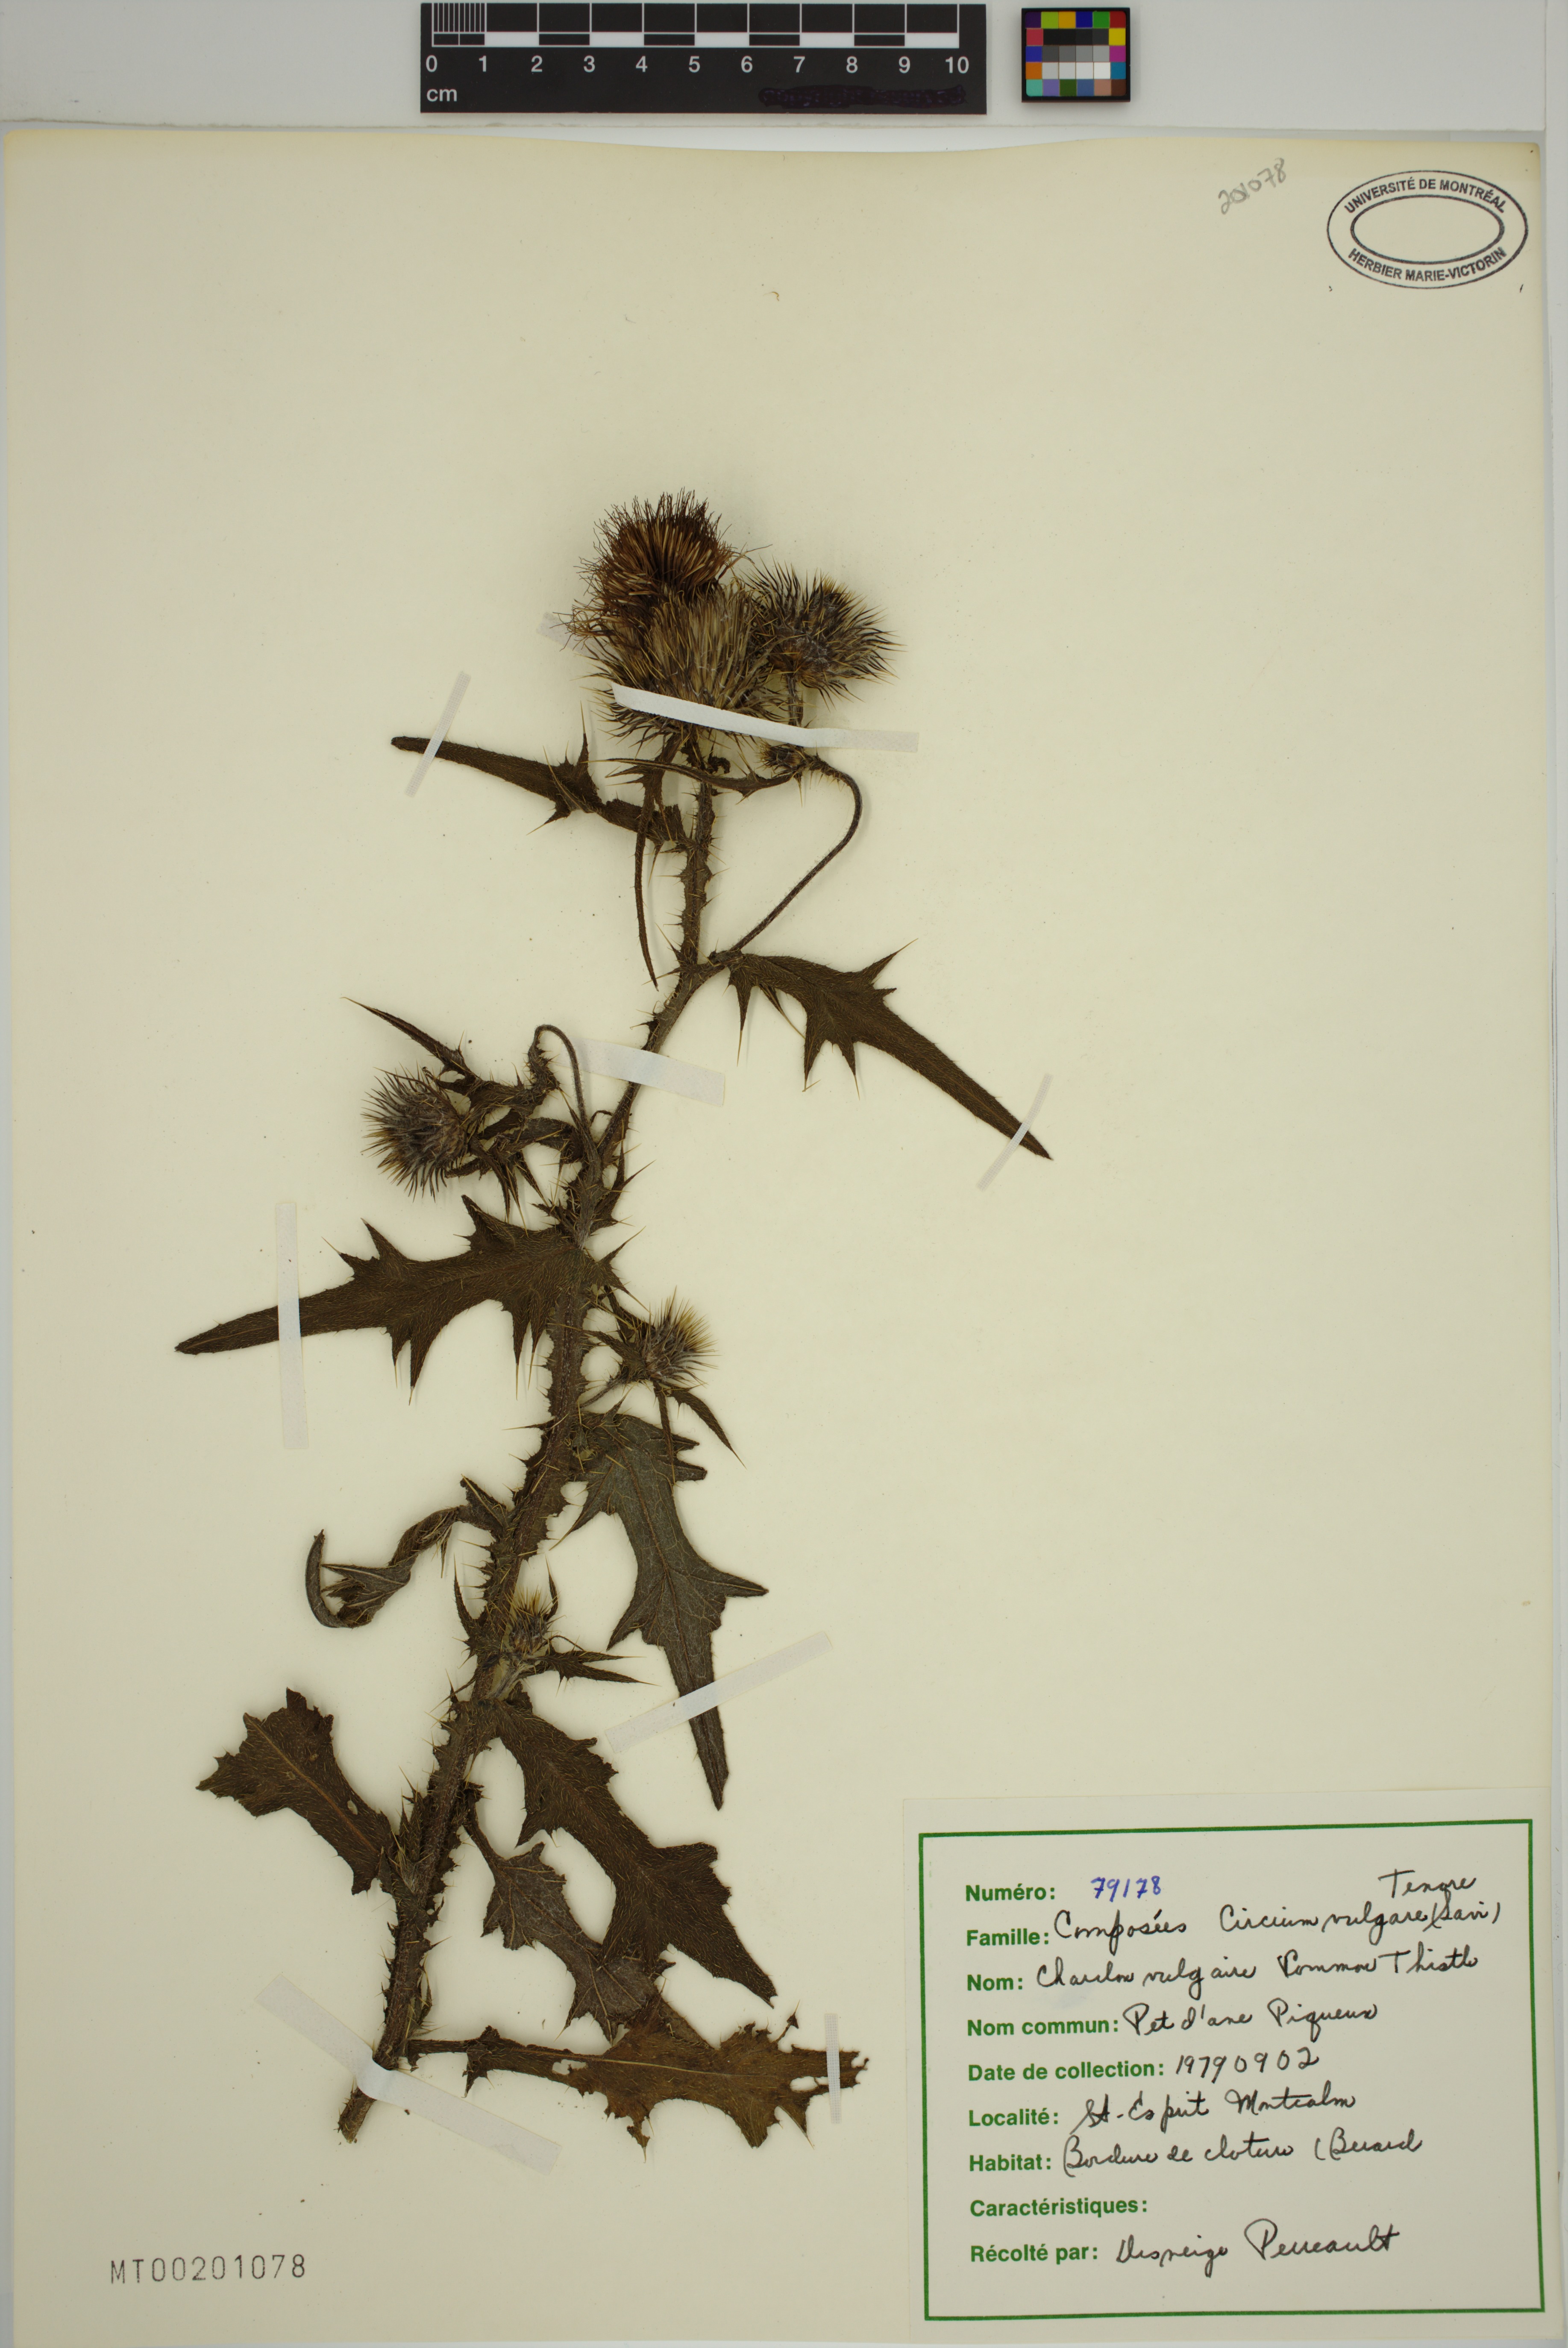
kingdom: Plantae
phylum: Tracheophyta
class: Magnoliopsida
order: Asterales
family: Asteraceae
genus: Cirsium
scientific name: Cirsium vulgare
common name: Bull thistle
